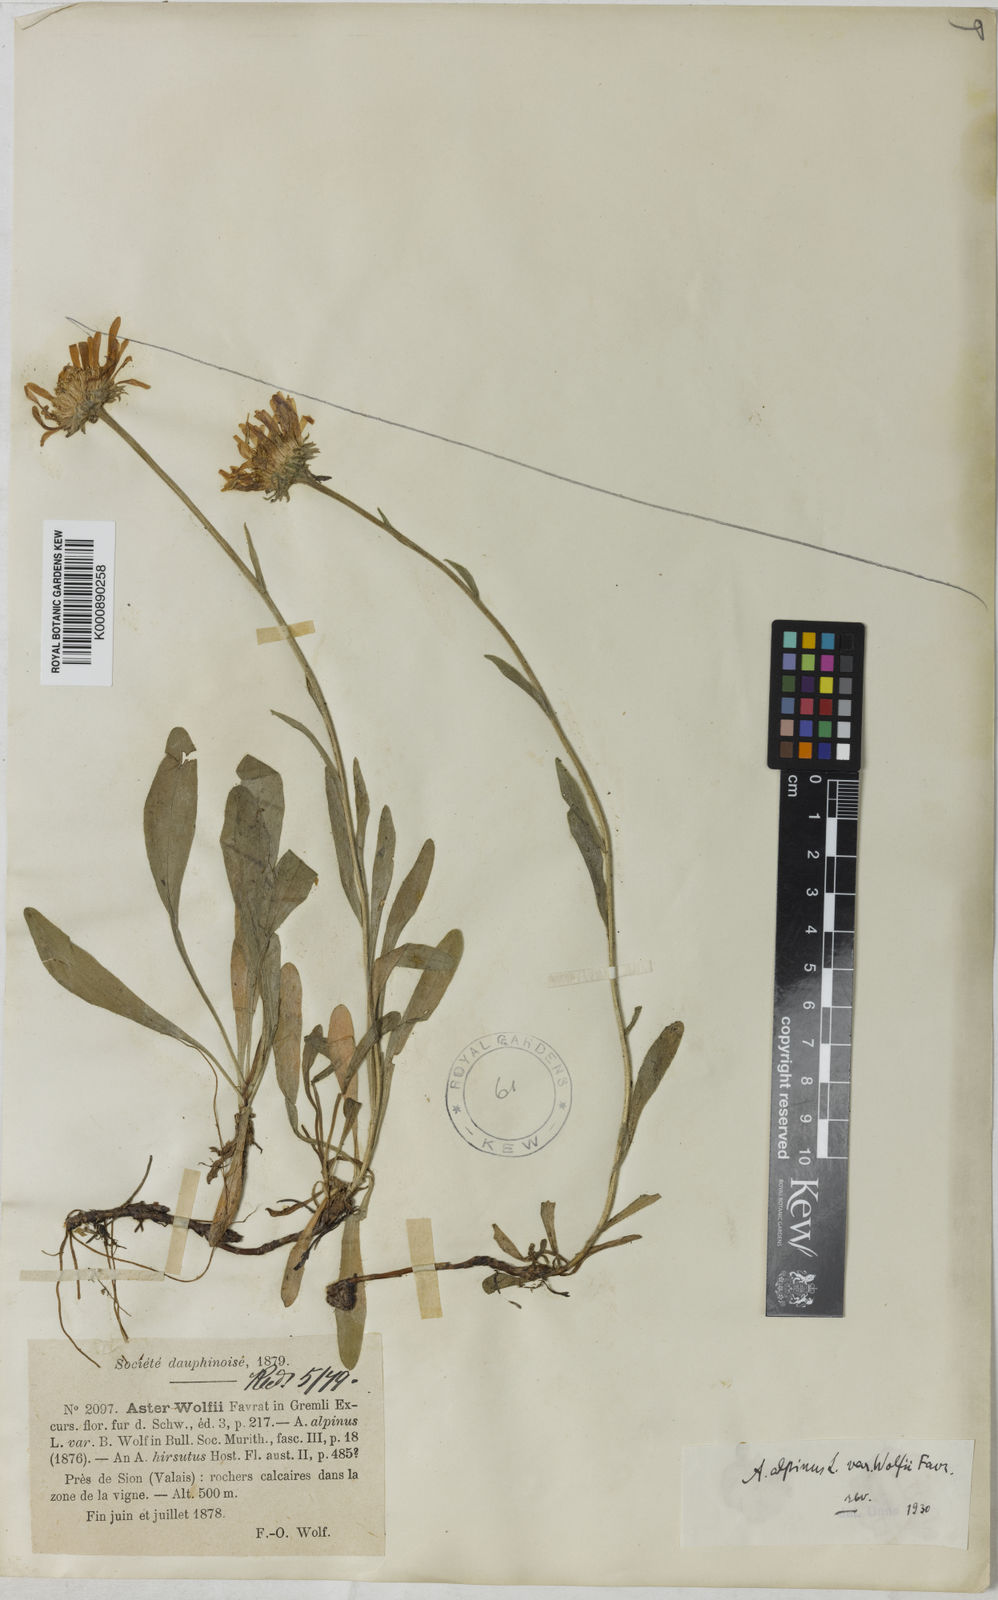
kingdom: Plantae
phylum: Tracheophyta
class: Magnoliopsida
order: Asterales
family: Asteraceae
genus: Aster
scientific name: Aster alpinus
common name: Alpine aster
